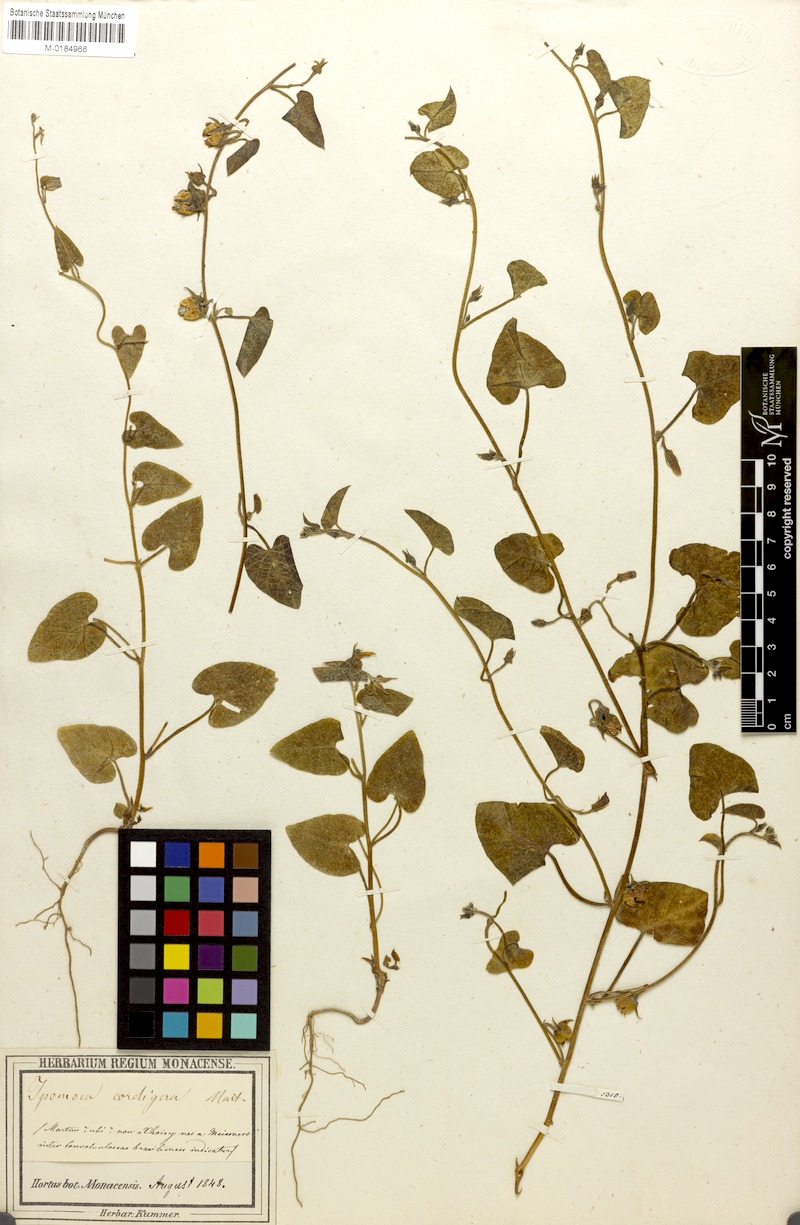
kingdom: Plantae
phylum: Tracheophyta
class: Magnoliopsida
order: Solanales
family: Convolvulaceae
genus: Ipomoea
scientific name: Ipomoea sinensis
